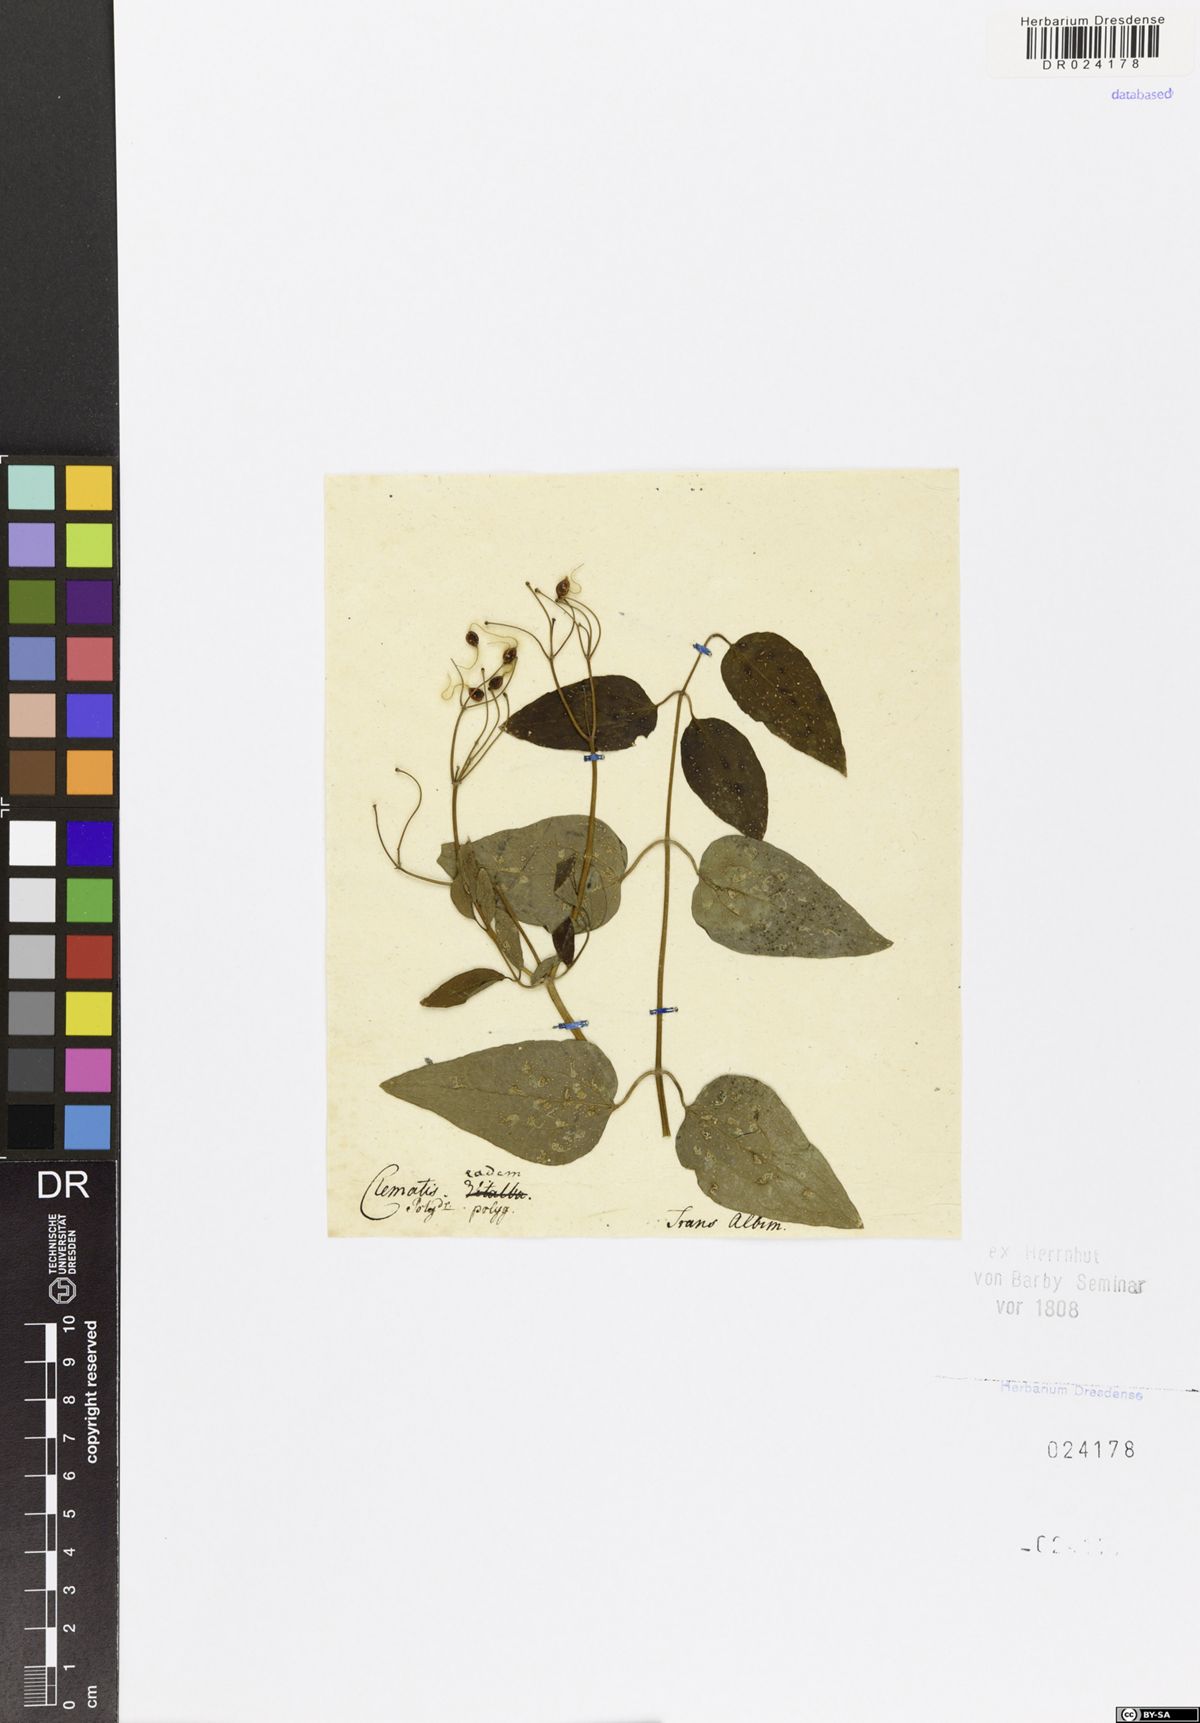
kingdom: Plantae
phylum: Tracheophyta
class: Magnoliopsida
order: Ranunculales
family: Ranunculaceae
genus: Clematis
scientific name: Clematis recta
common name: Ground clematis
